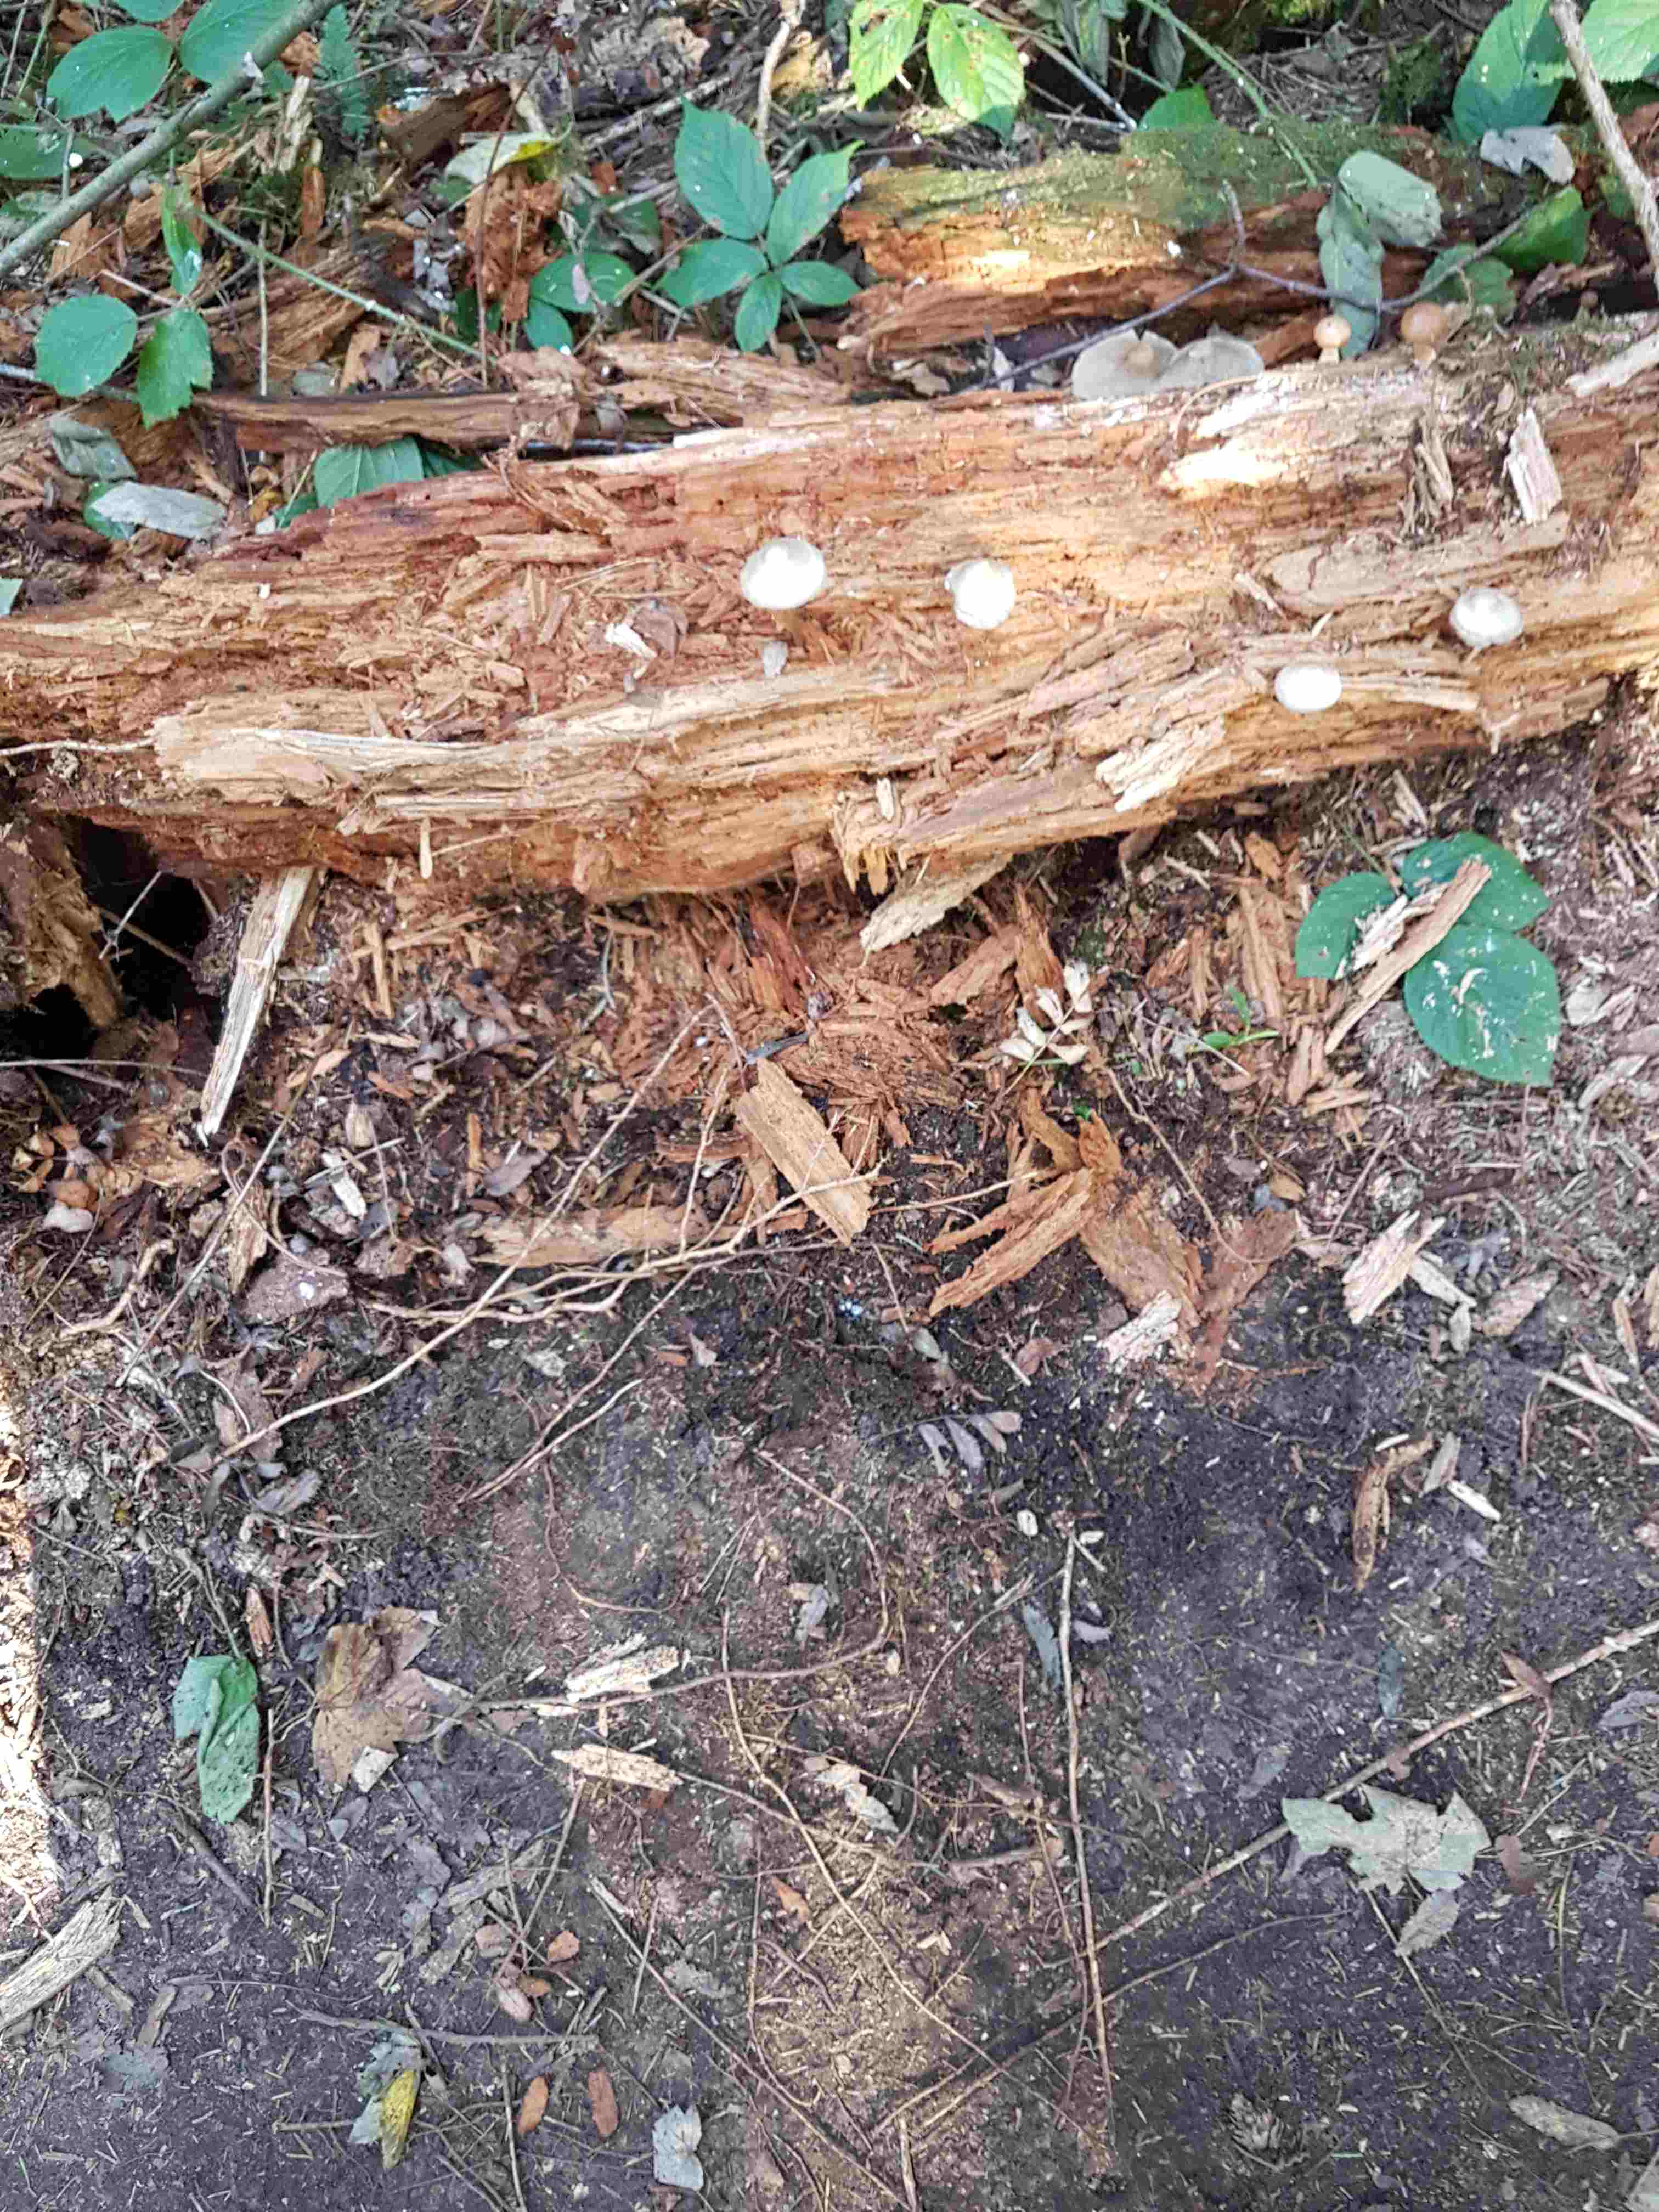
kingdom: Fungi
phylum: Basidiomycota
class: Agaricomycetes
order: Agaricales
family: Mycenaceae
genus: Mycena
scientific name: Mycena galericulata
